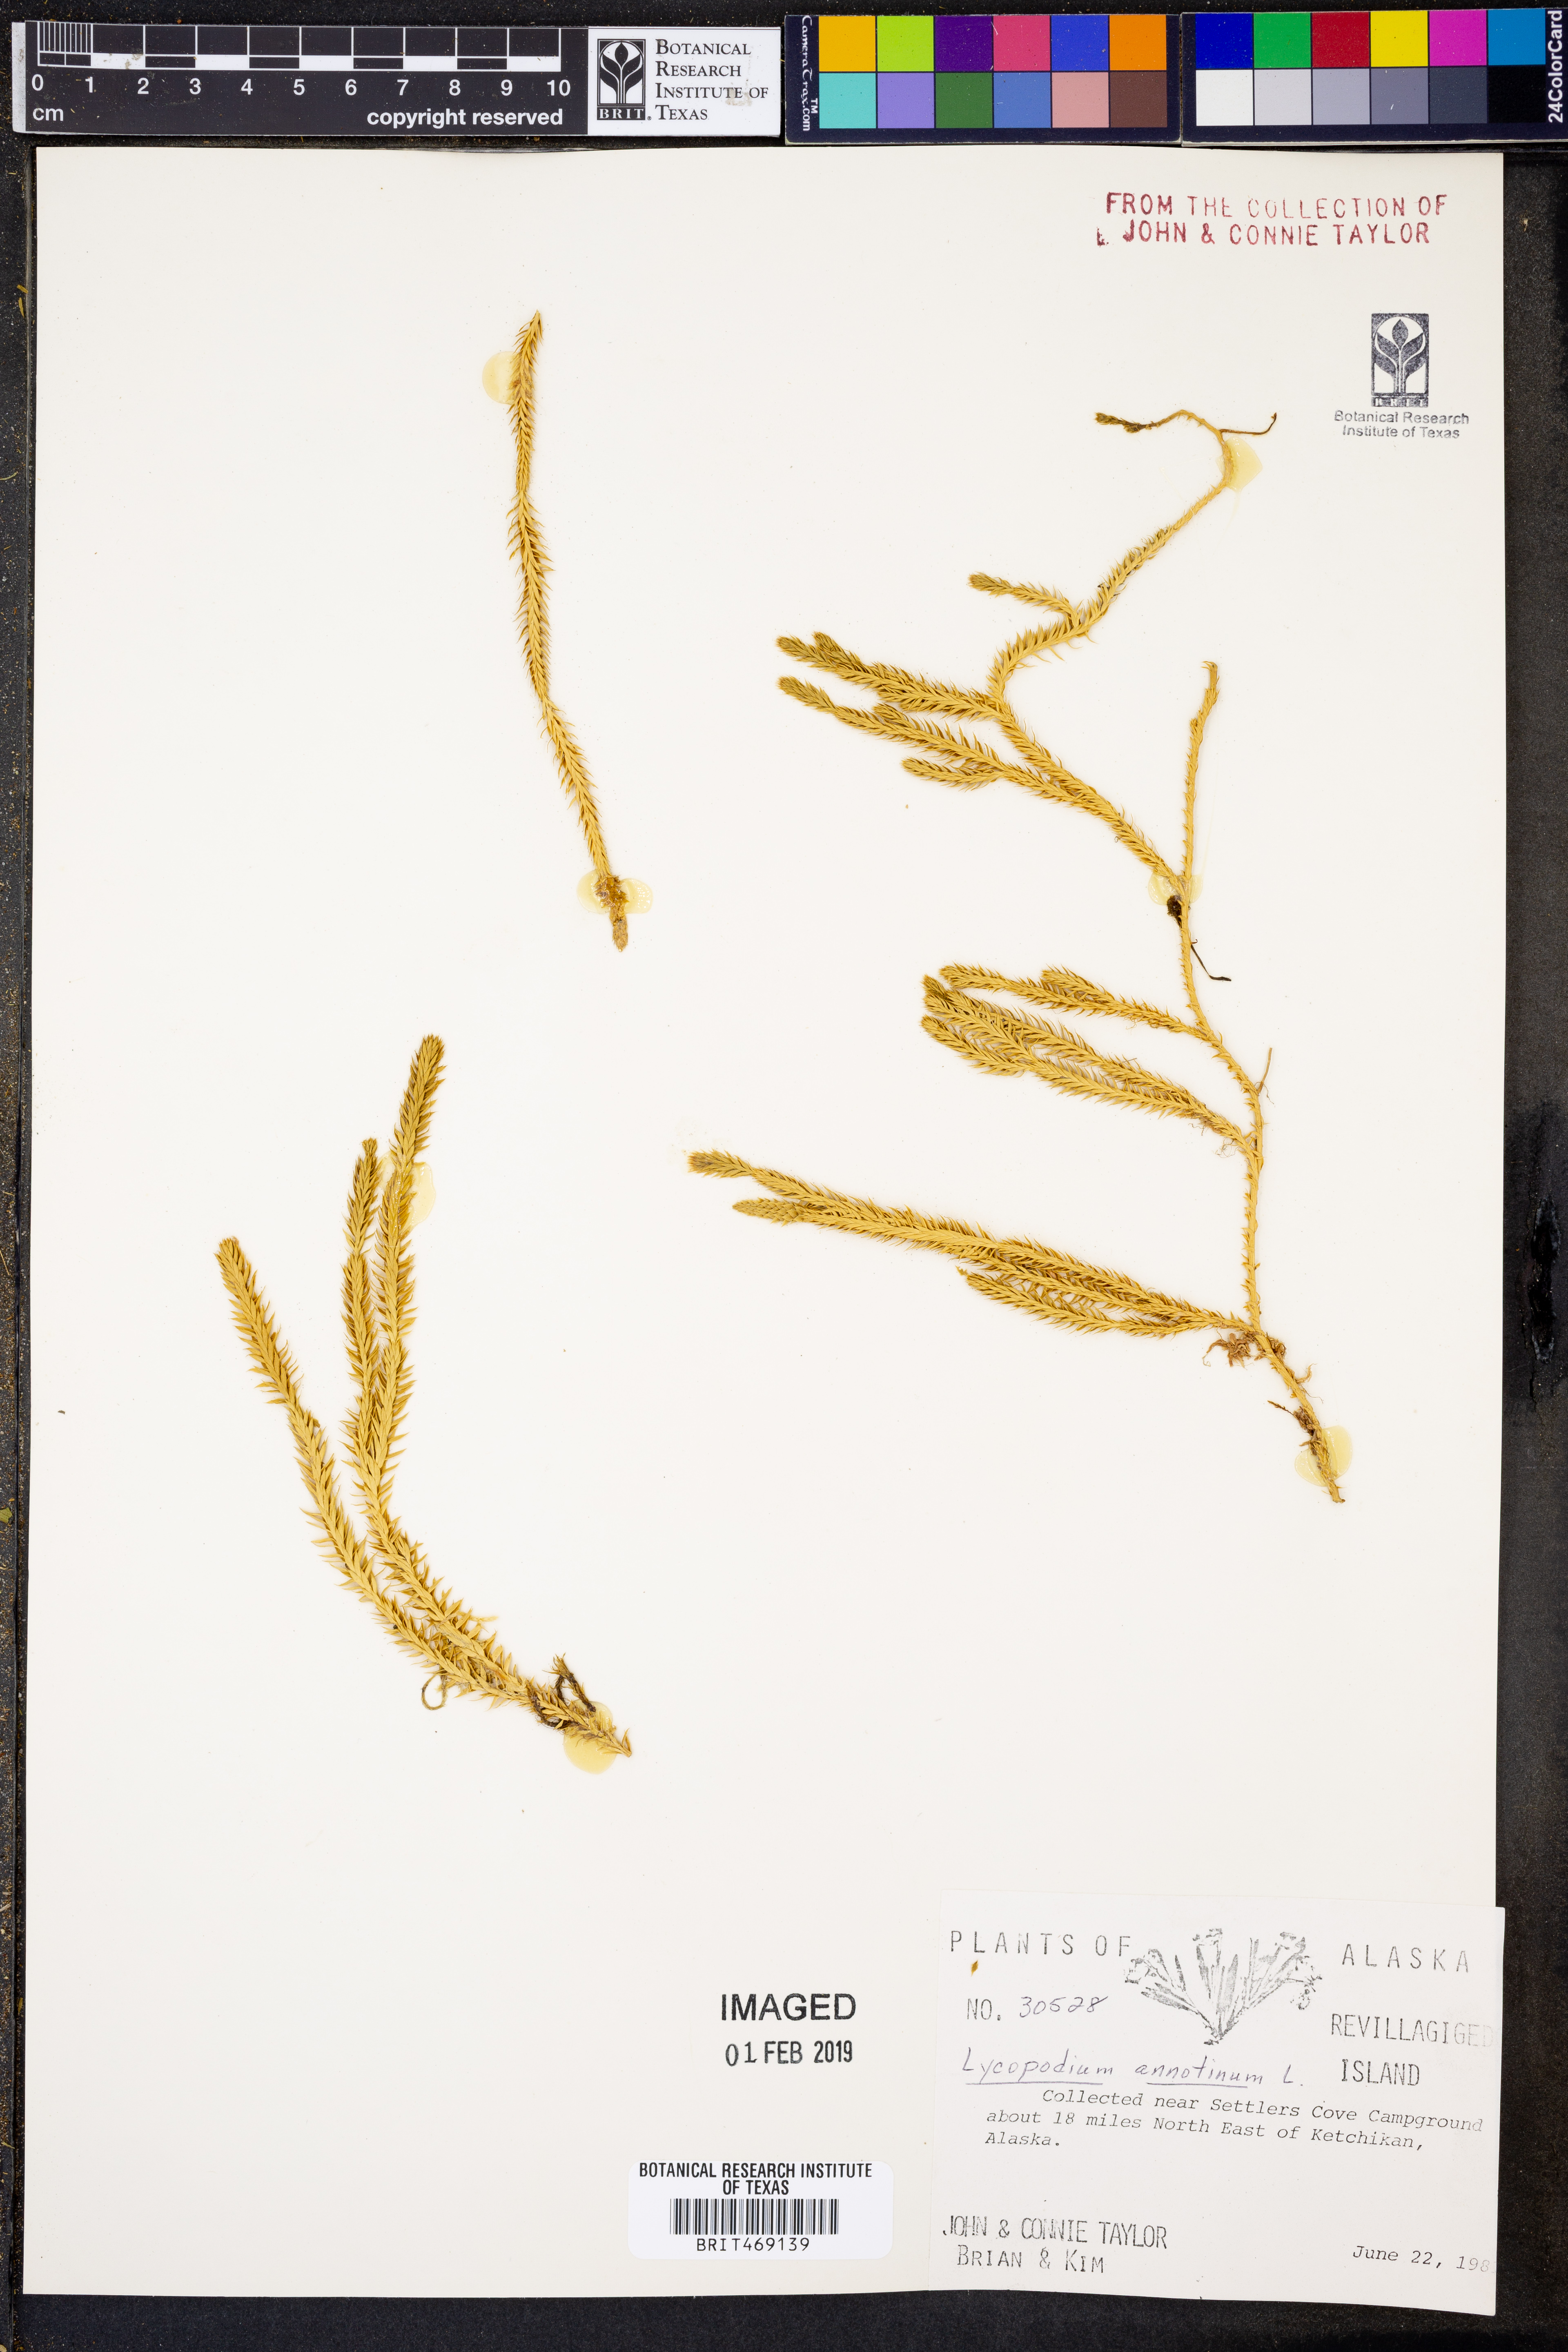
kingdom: Plantae
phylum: Tracheophyta
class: Lycopodiopsida
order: Lycopodiales
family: Lycopodiaceae
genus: Spinulum
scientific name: Spinulum annotinum
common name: Interrupted club-moss
